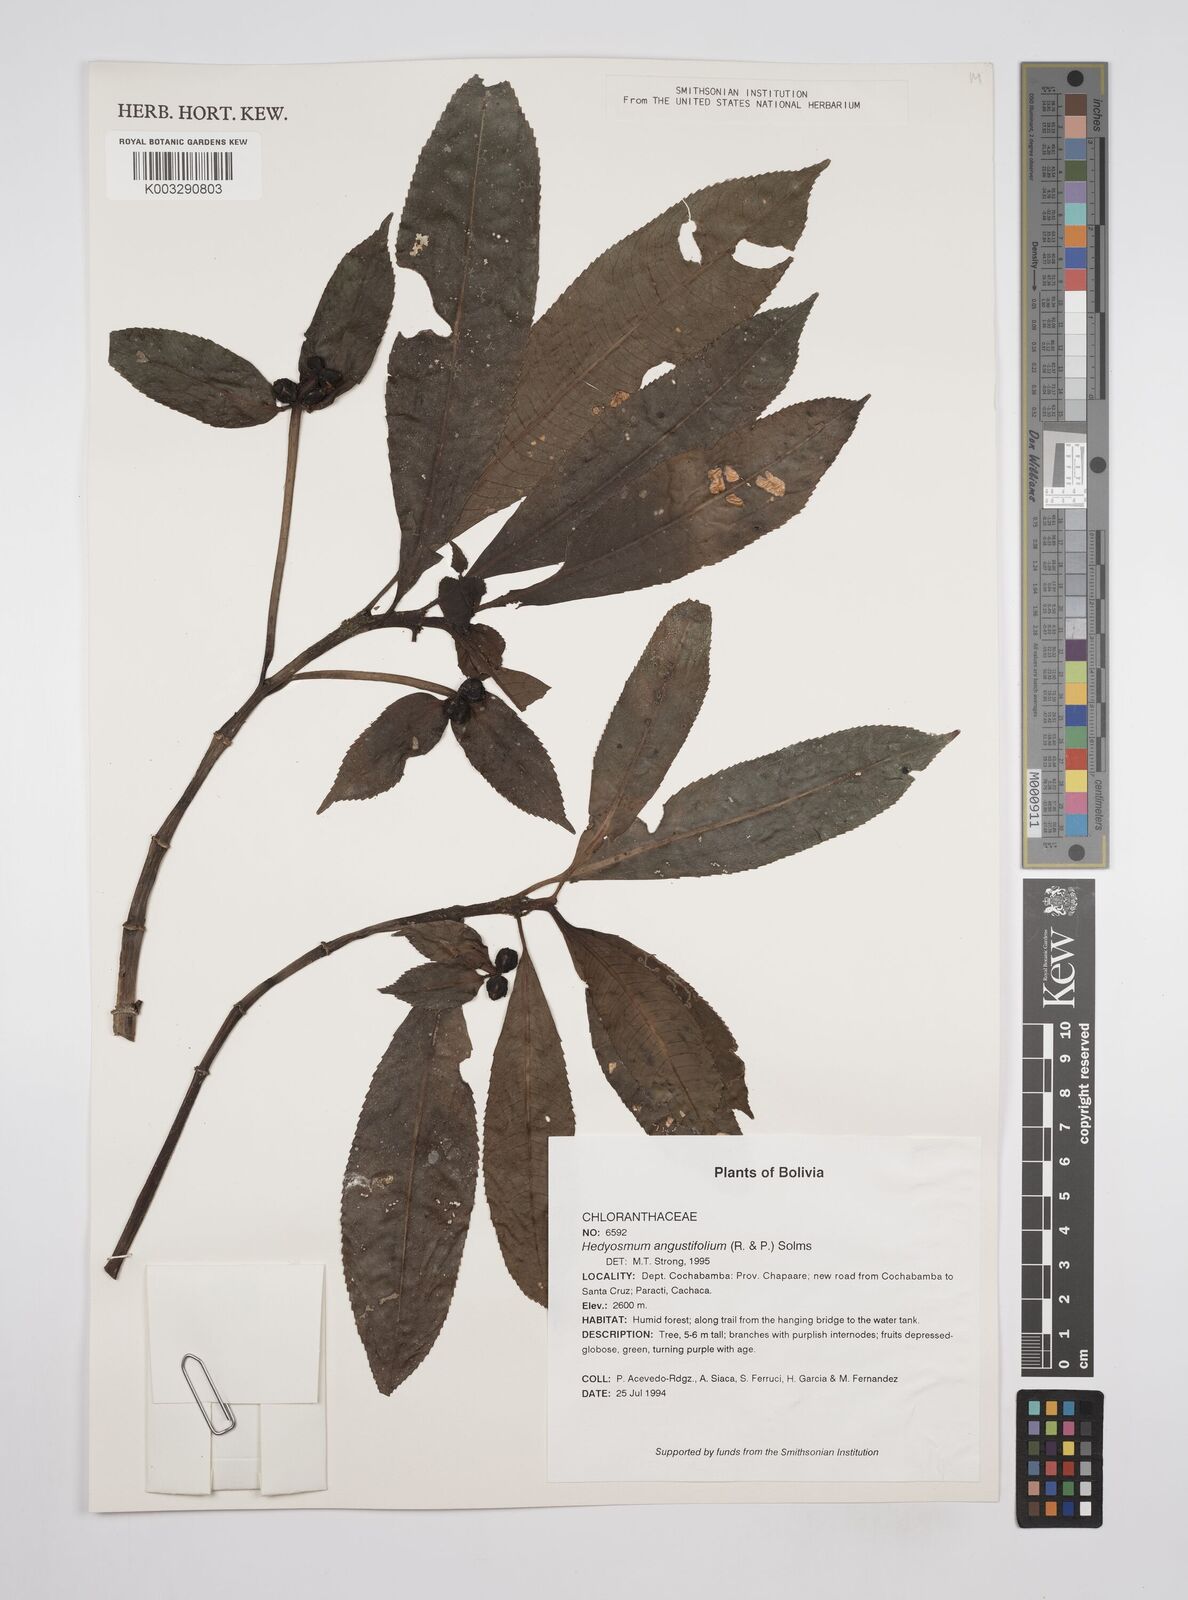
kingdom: Plantae
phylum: Tracheophyta
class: Magnoliopsida
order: Chloranthales
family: Chloranthaceae
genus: Hedyosmum
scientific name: Hedyosmum angustifolium
